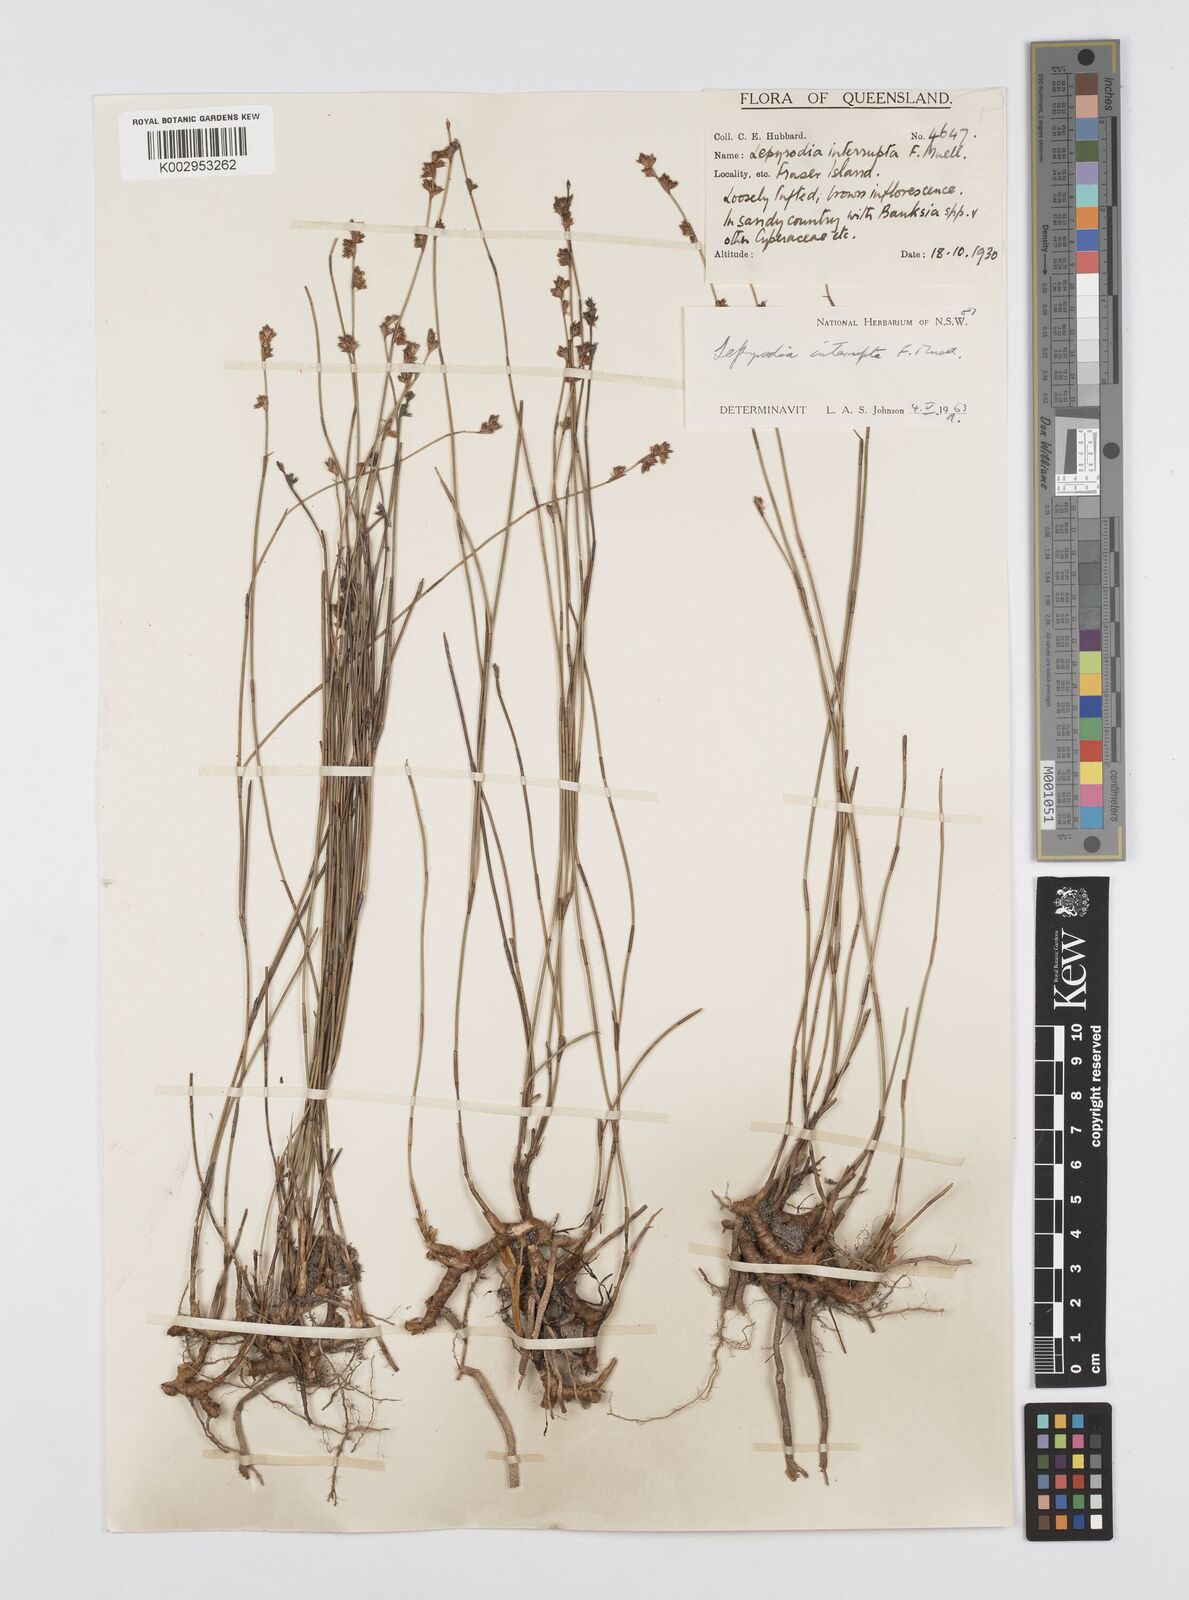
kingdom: Plantae
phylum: Tracheophyta
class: Liliopsida
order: Poales
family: Restionaceae
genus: Sporadanthus
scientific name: Sporadanthus interruptus
